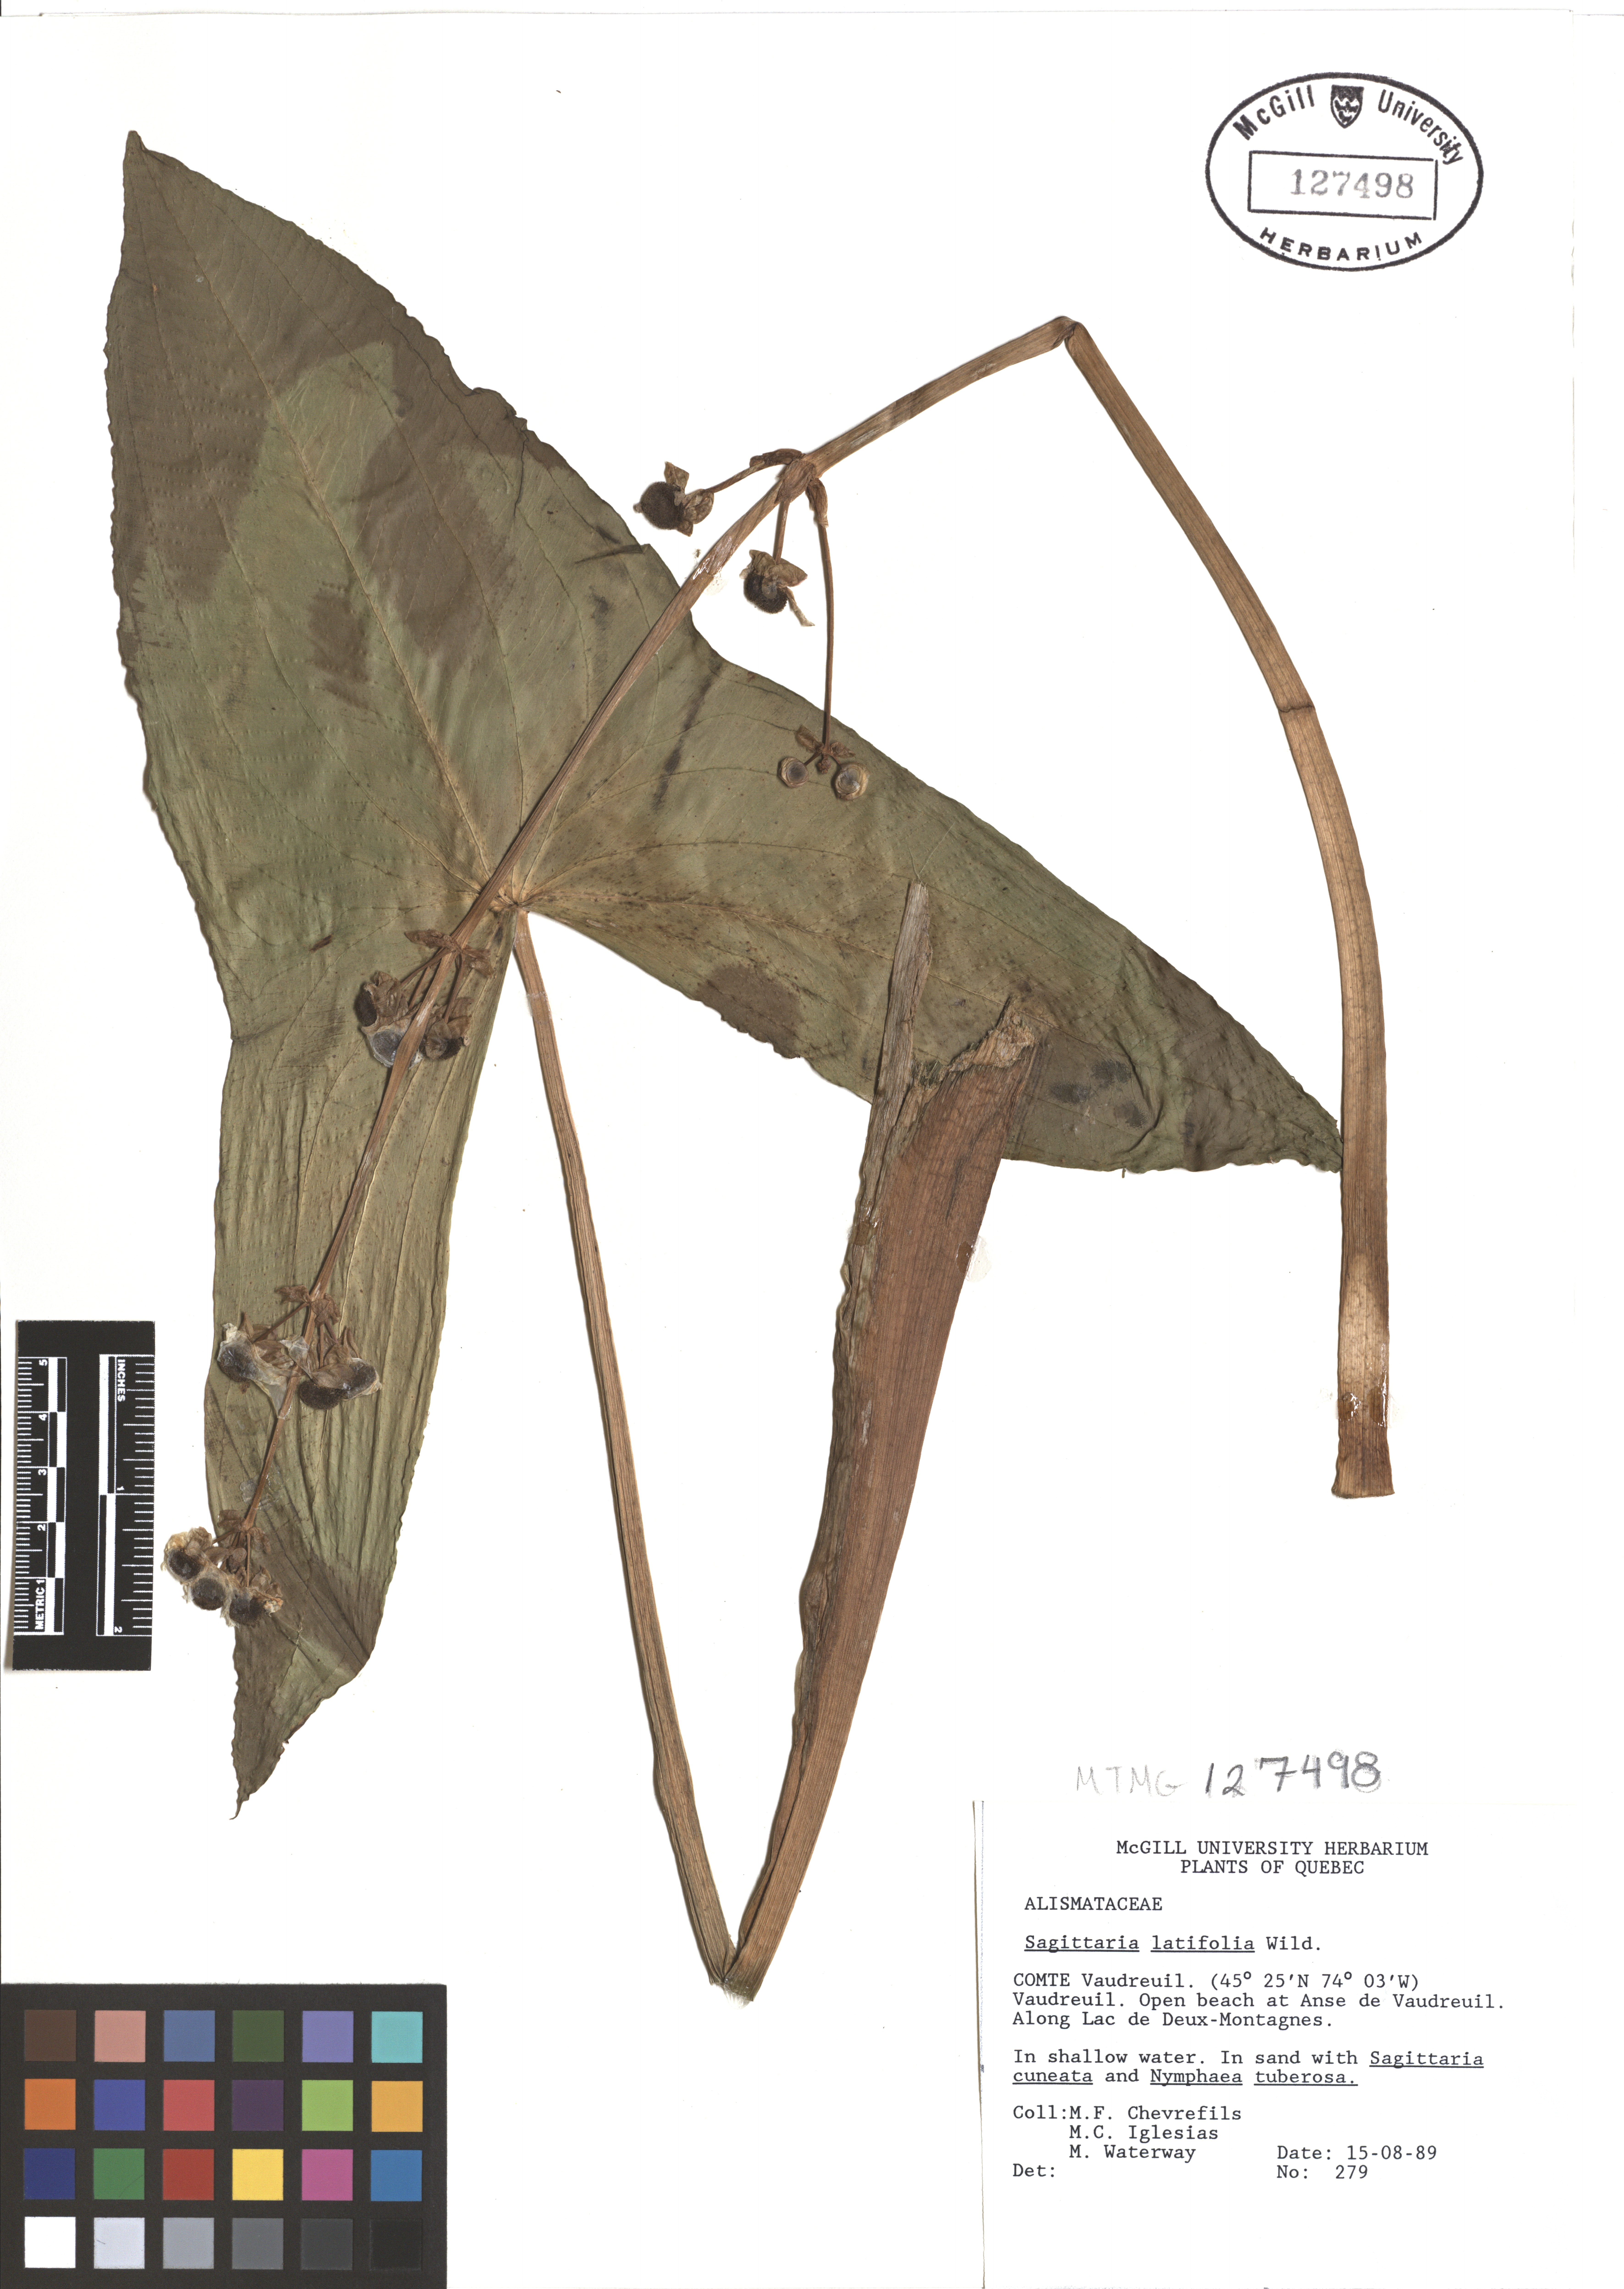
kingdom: Plantae
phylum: Tracheophyta
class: Liliopsida
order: Alismatales
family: Alismataceae
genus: Sagittaria
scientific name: Sagittaria latifolia
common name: Duck-potato
